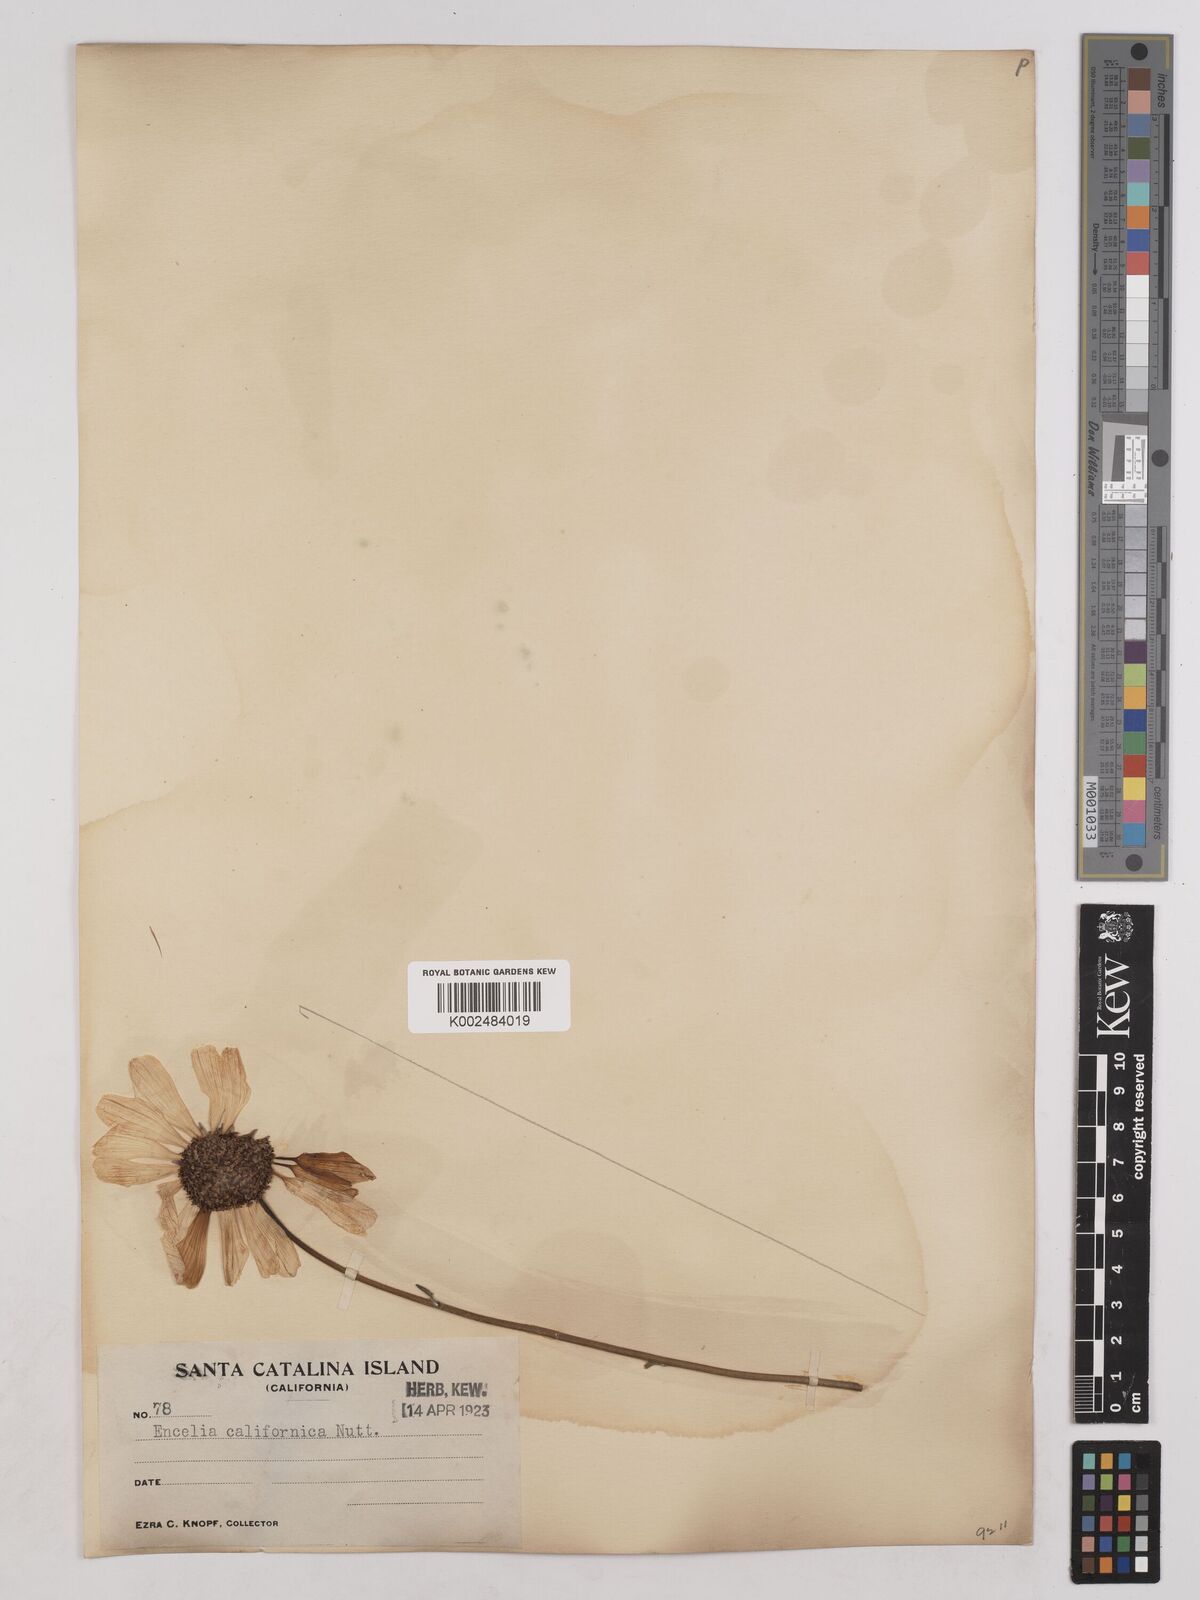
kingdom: Plantae
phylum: Tracheophyta
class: Magnoliopsida
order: Asterales
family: Asteraceae
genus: Encelia
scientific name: Encelia californica
